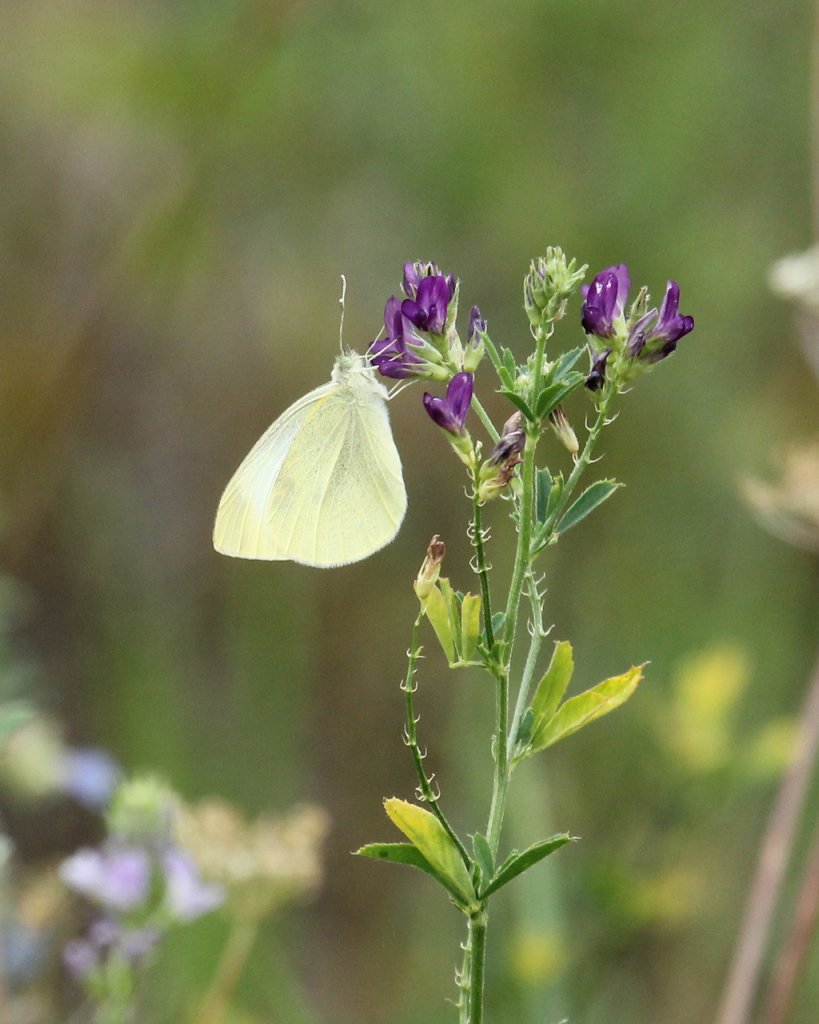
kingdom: Animalia
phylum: Arthropoda
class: Insecta
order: Lepidoptera
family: Pieridae
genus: Pieris
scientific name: Pieris rapae
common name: Cabbage White
